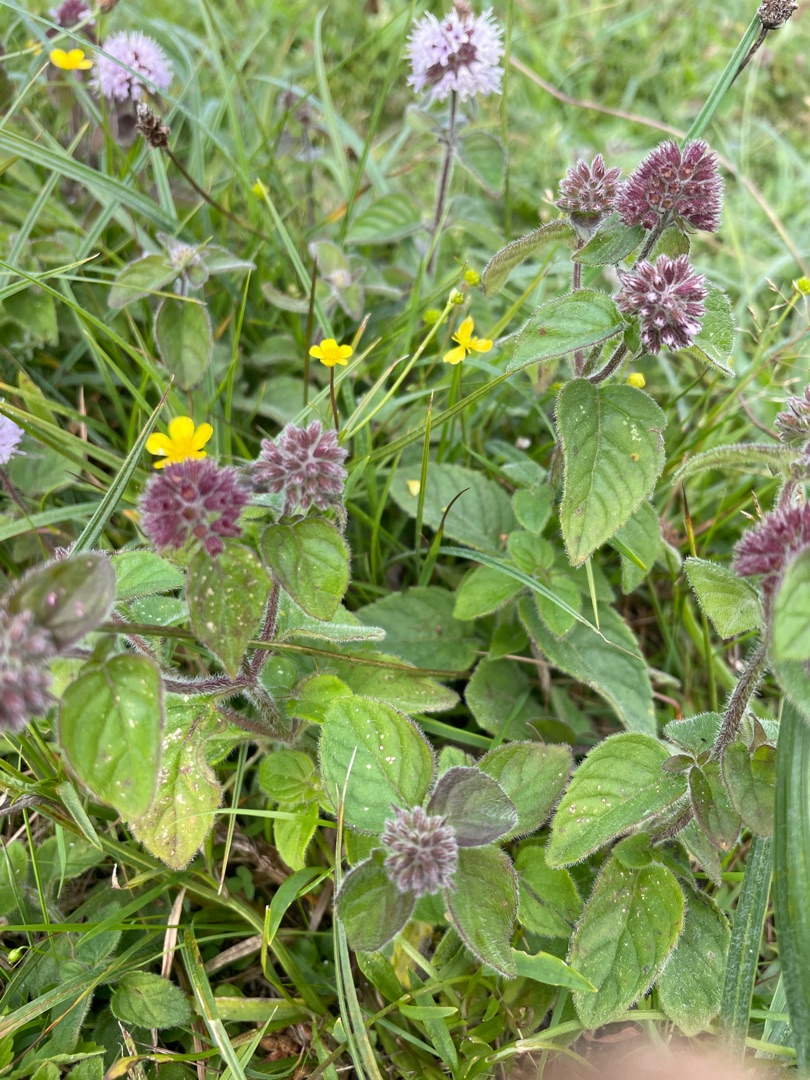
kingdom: Plantae
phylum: Tracheophyta
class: Magnoliopsida
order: Lamiales
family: Lamiaceae
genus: Mentha
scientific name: Mentha aquatica
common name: Vand-mynte
